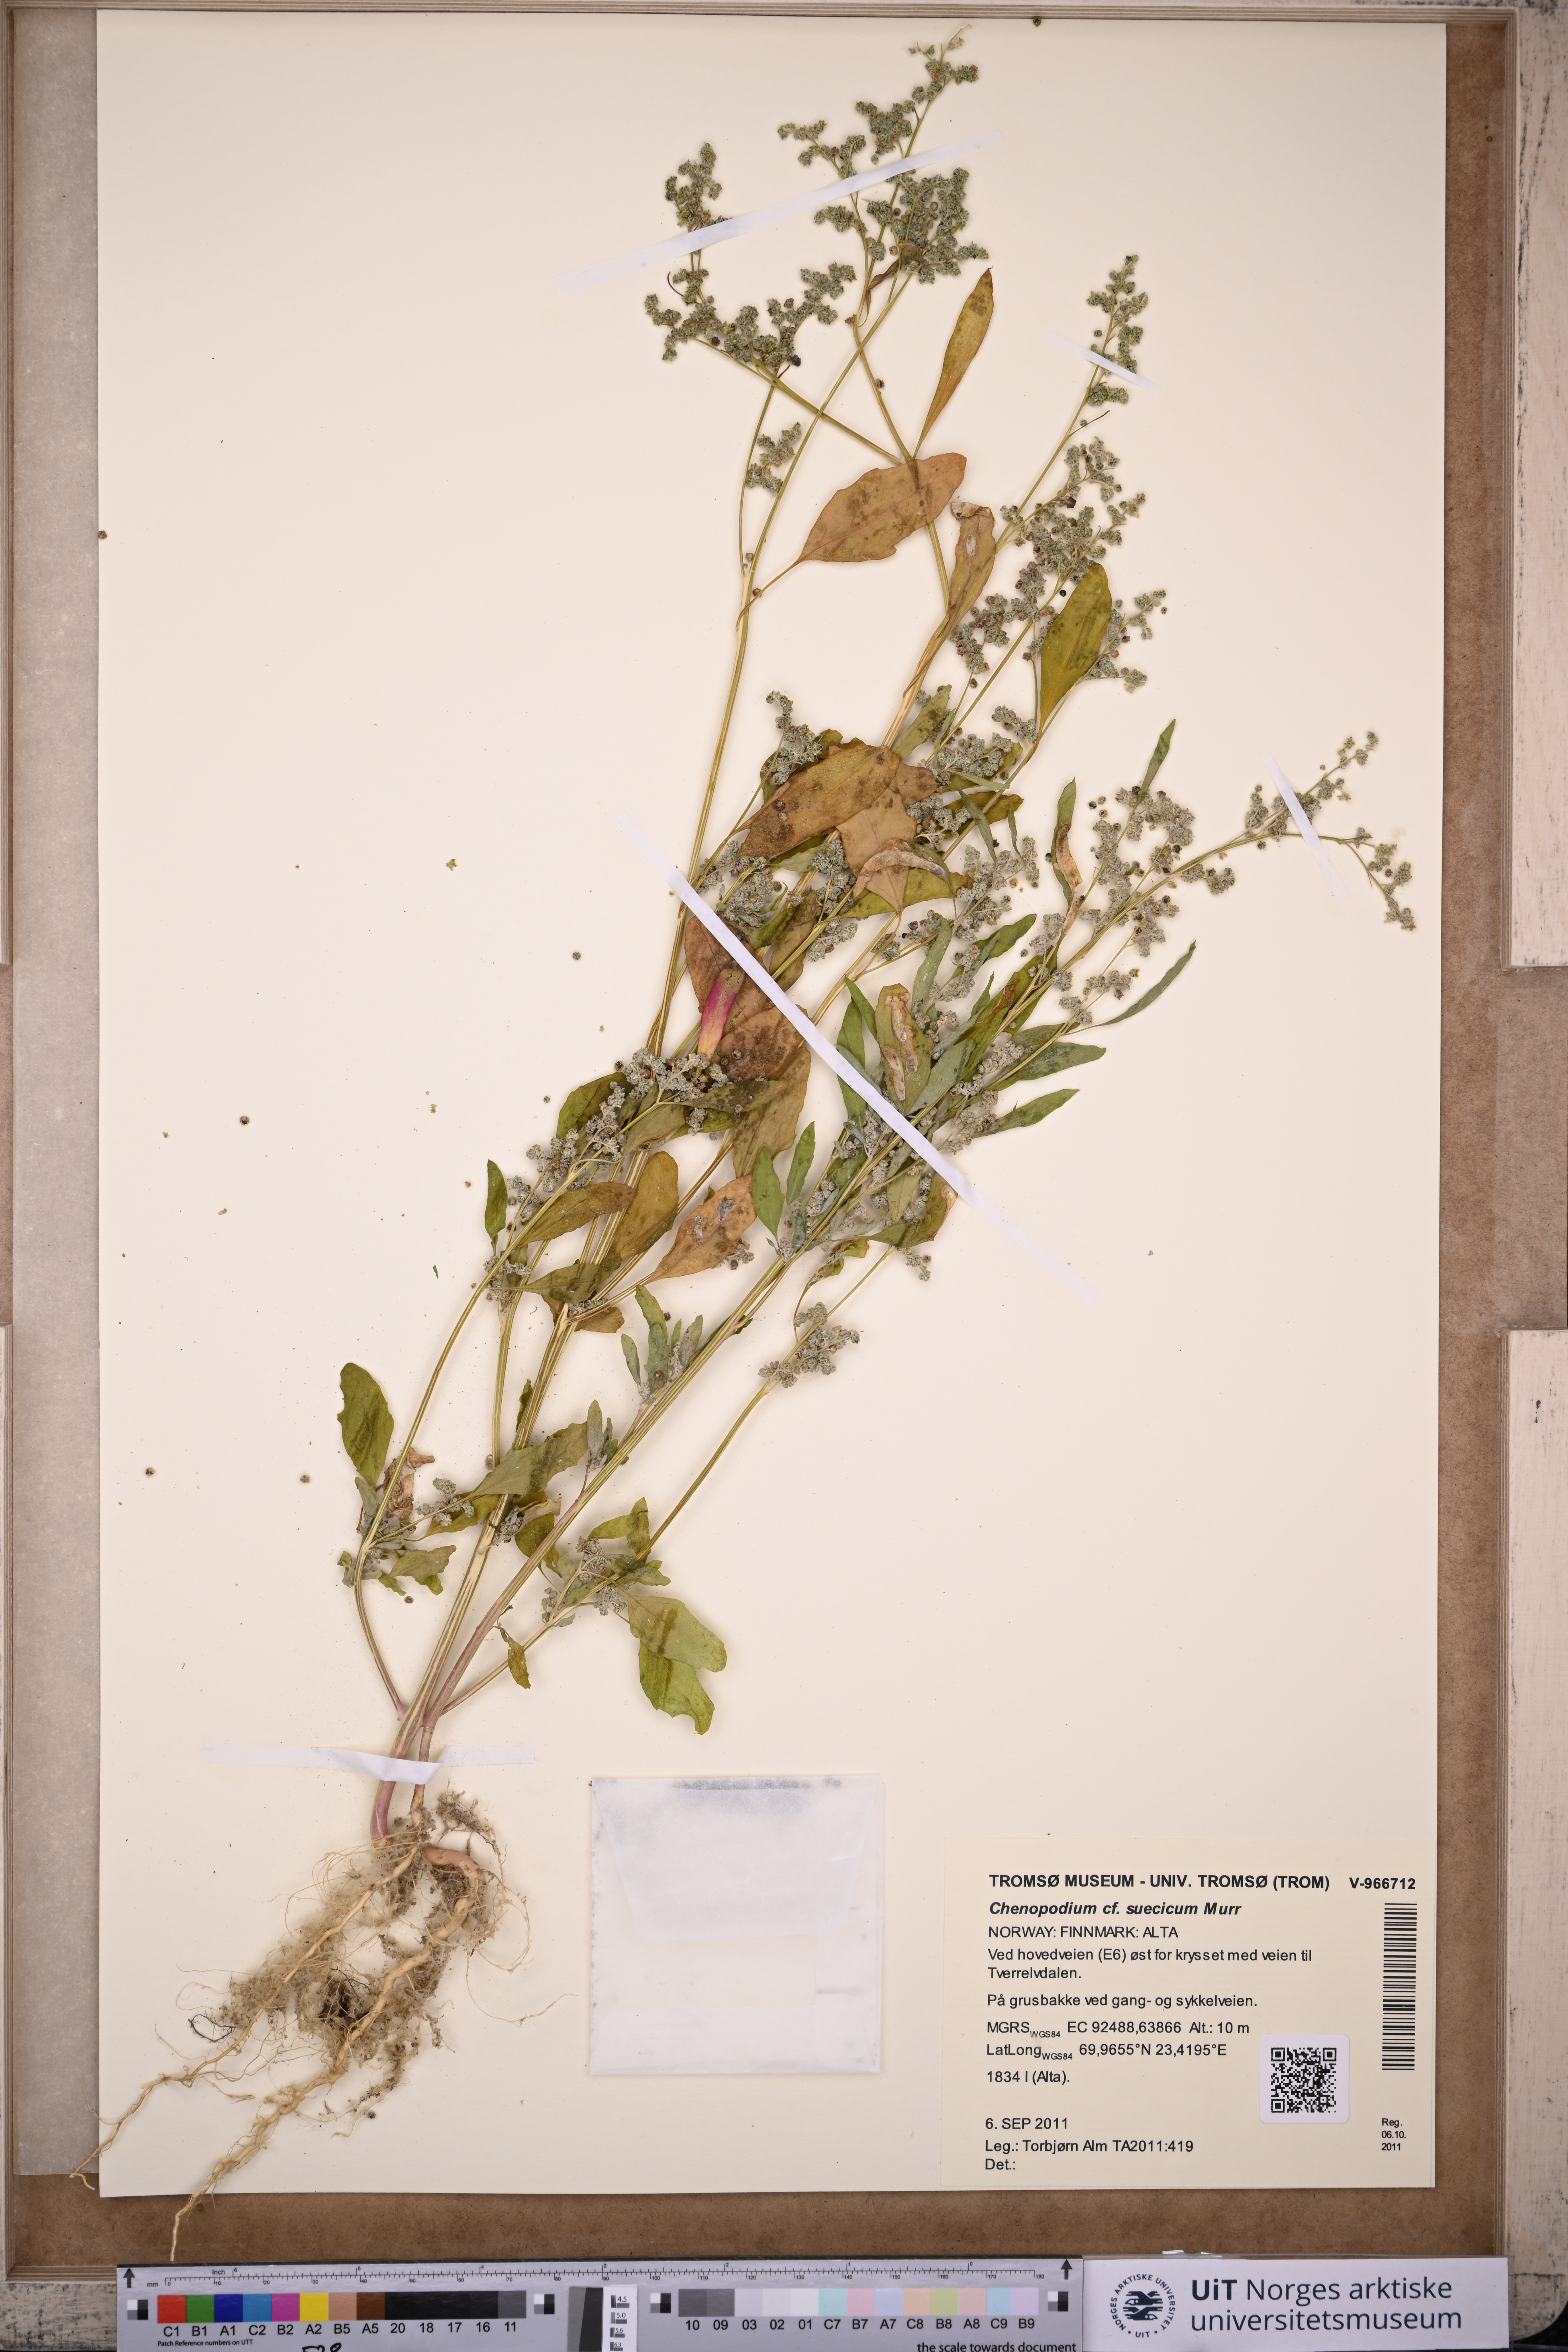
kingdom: Plantae
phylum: Tracheophyta
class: Magnoliopsida
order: Caryophyllales
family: Amaranthaceae
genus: Chenopodium
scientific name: Chenopodium suecicum
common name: Swedish goosefoot
